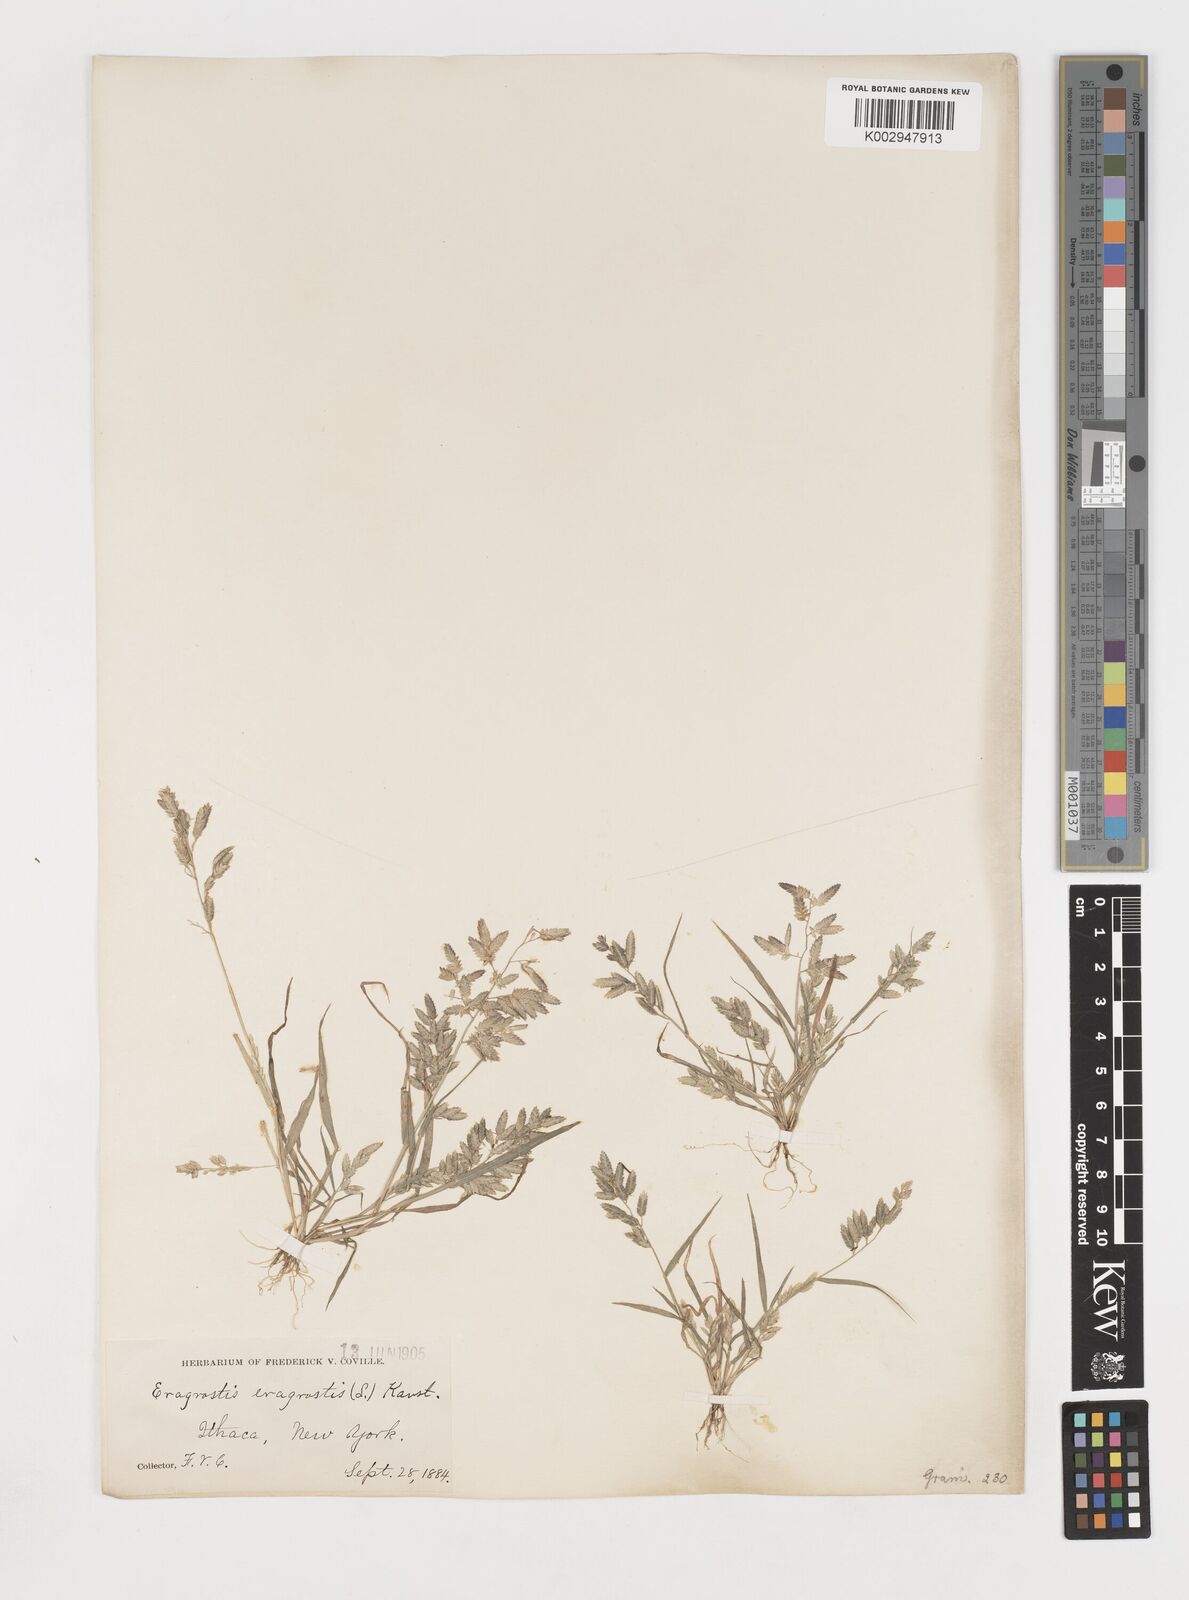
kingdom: Plantae
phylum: Tracheophyta
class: Liliopsida
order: Poales
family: Poaceae
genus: Eragrostis
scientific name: Eragrostis
